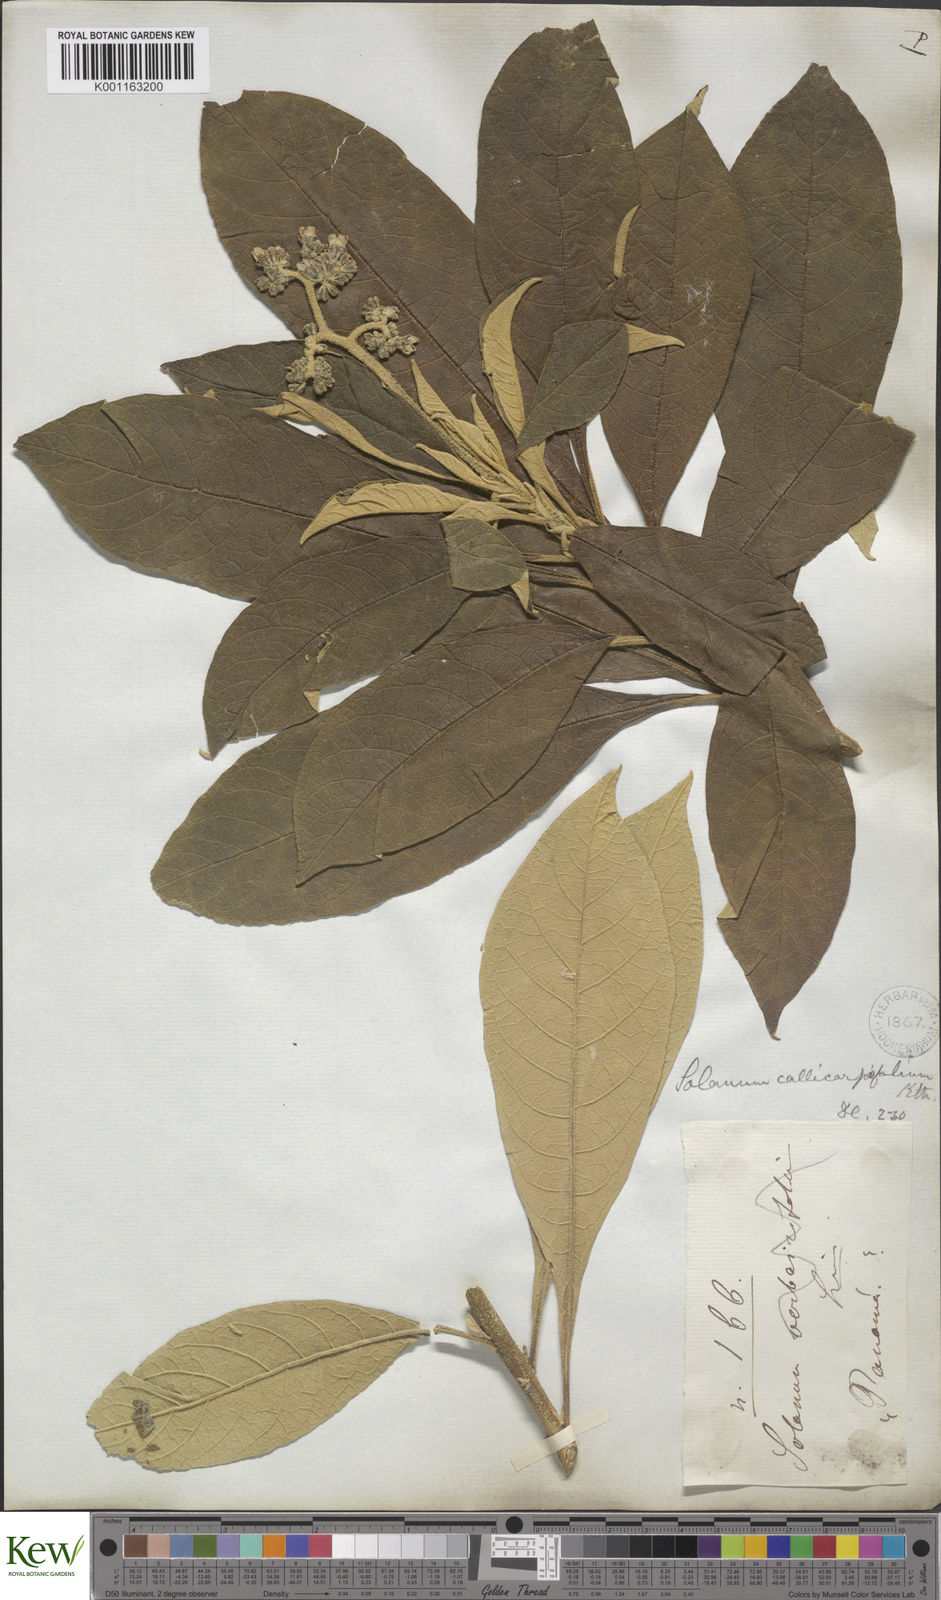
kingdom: Plantae
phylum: Tracheophyta
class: Magnoliopsida
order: Solanales
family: Solanaceae
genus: Solanum
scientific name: Solanum bicolor
